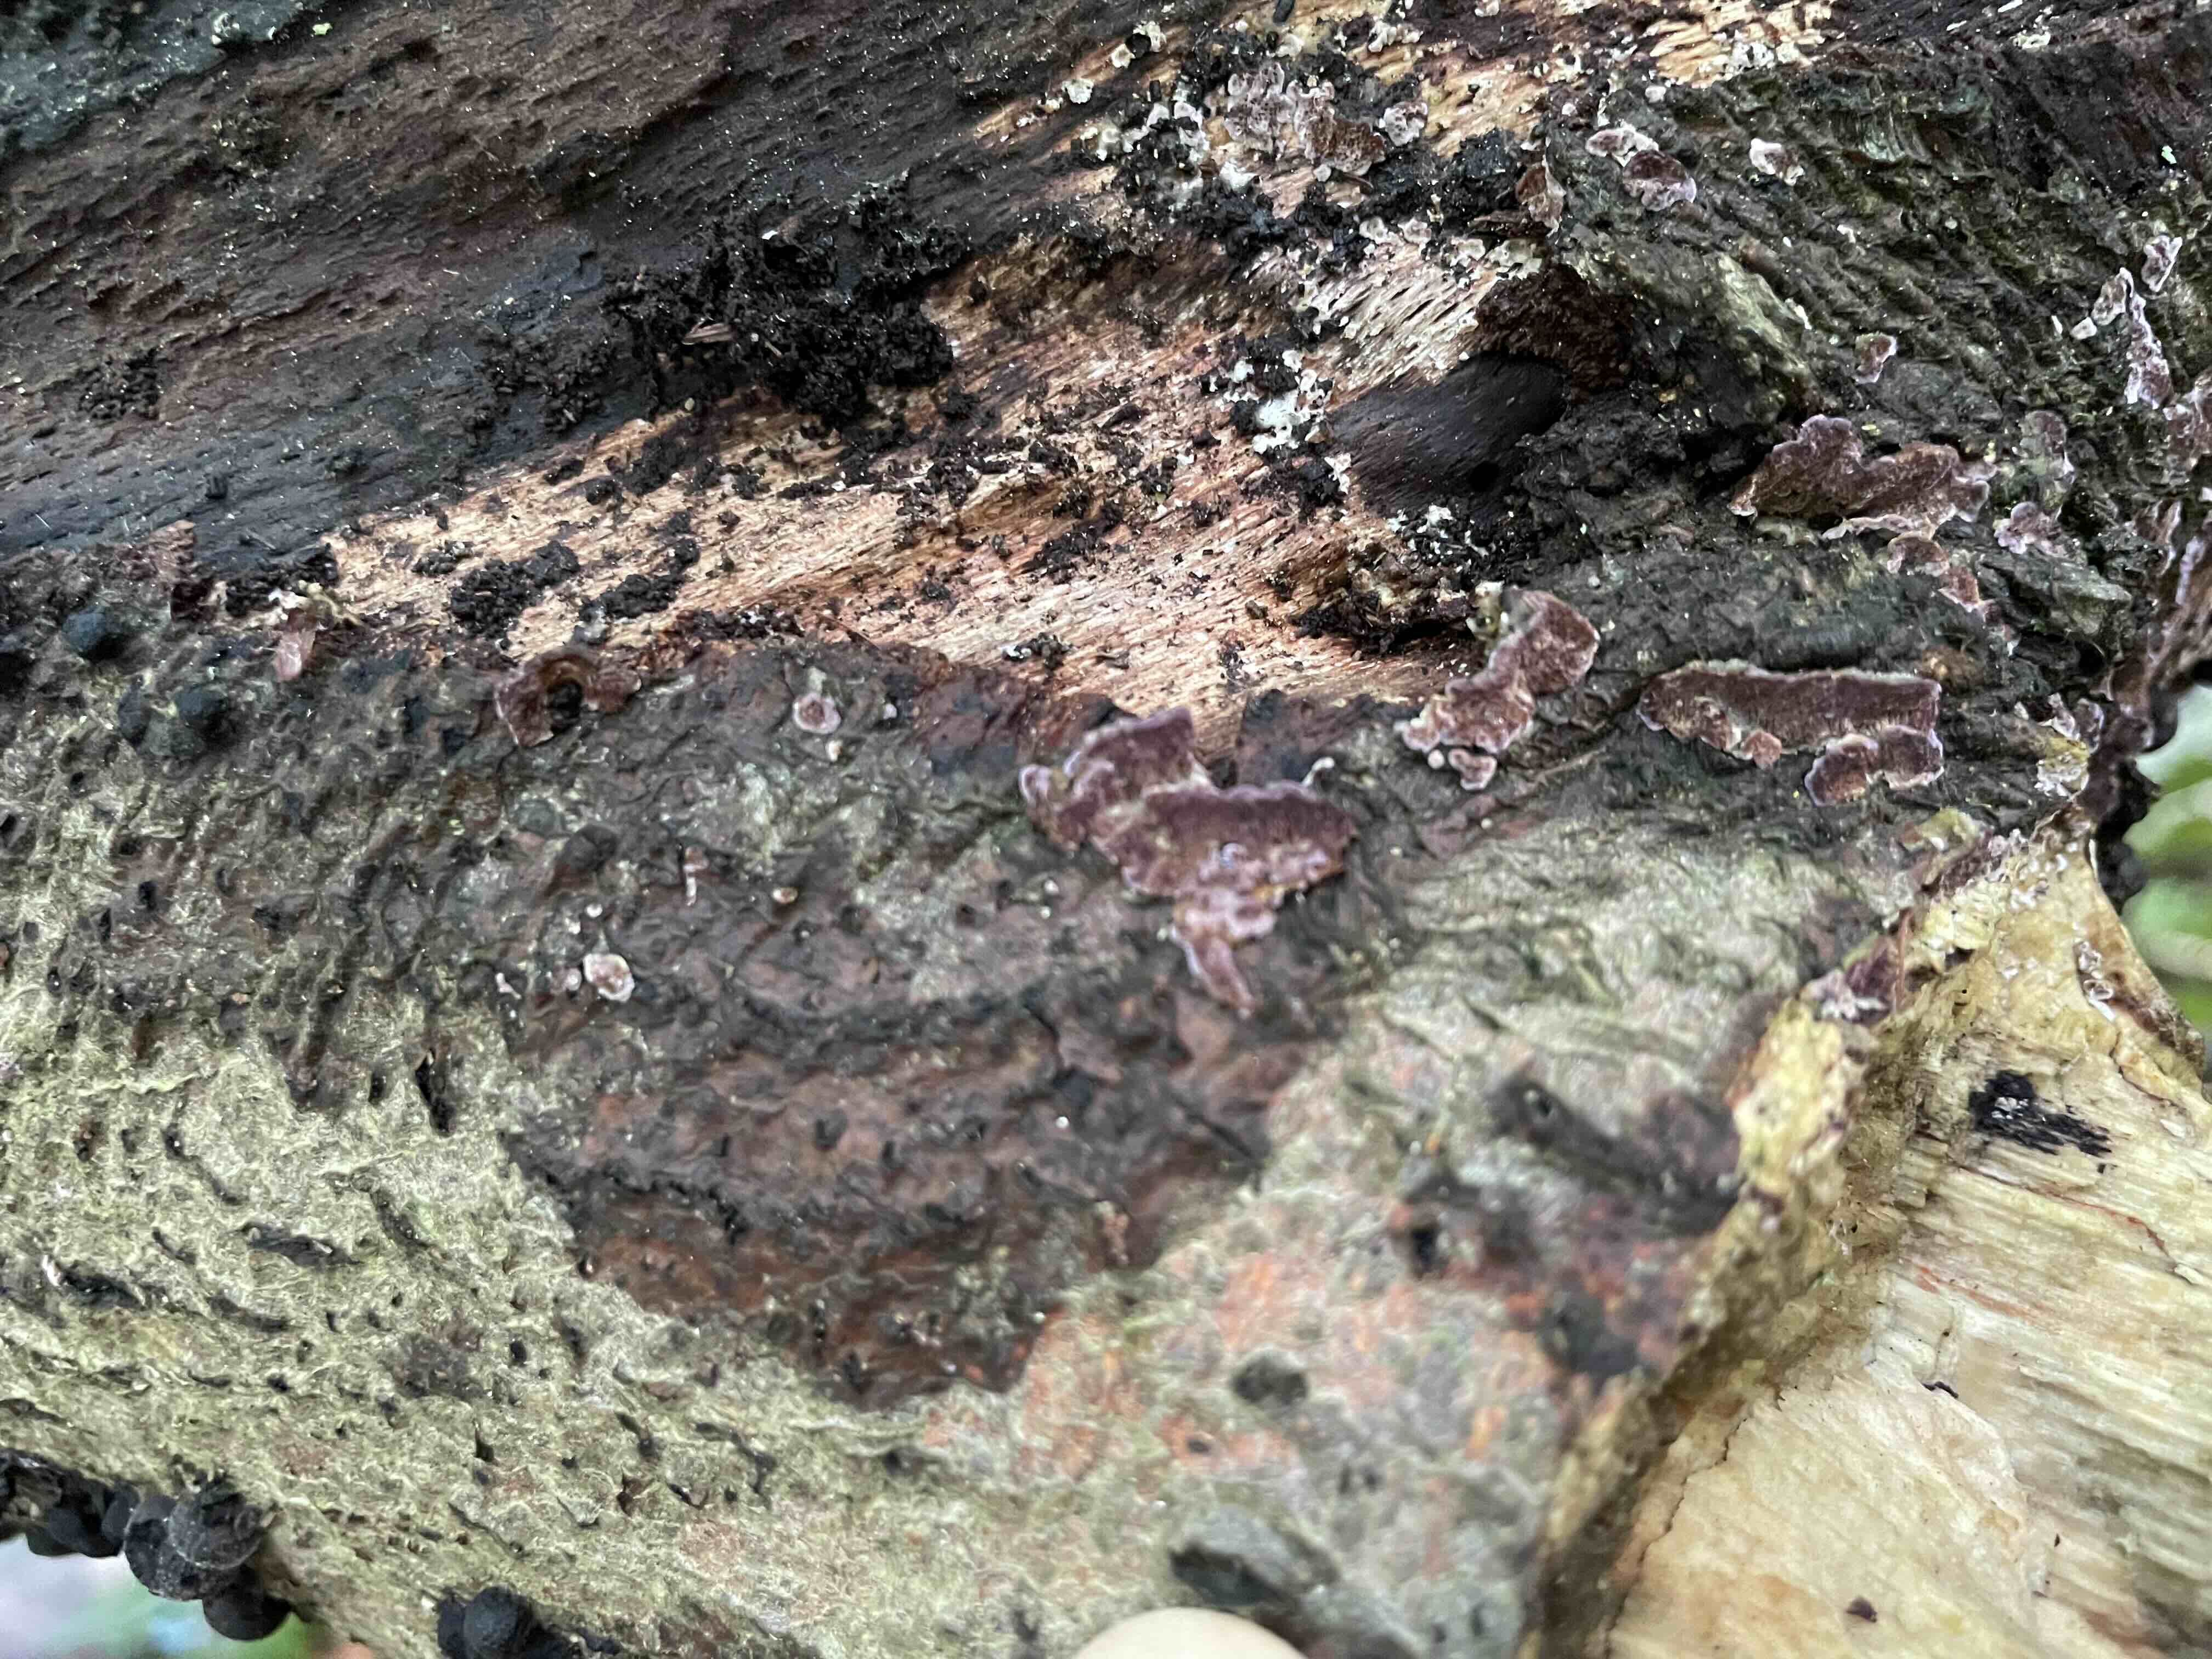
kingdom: Fungi
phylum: Basidiomycota
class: Agaricomycetes
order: Hymenochaetales
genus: Trichaptum
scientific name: Trichaptum abietinum
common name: almindelig violporesvamp
